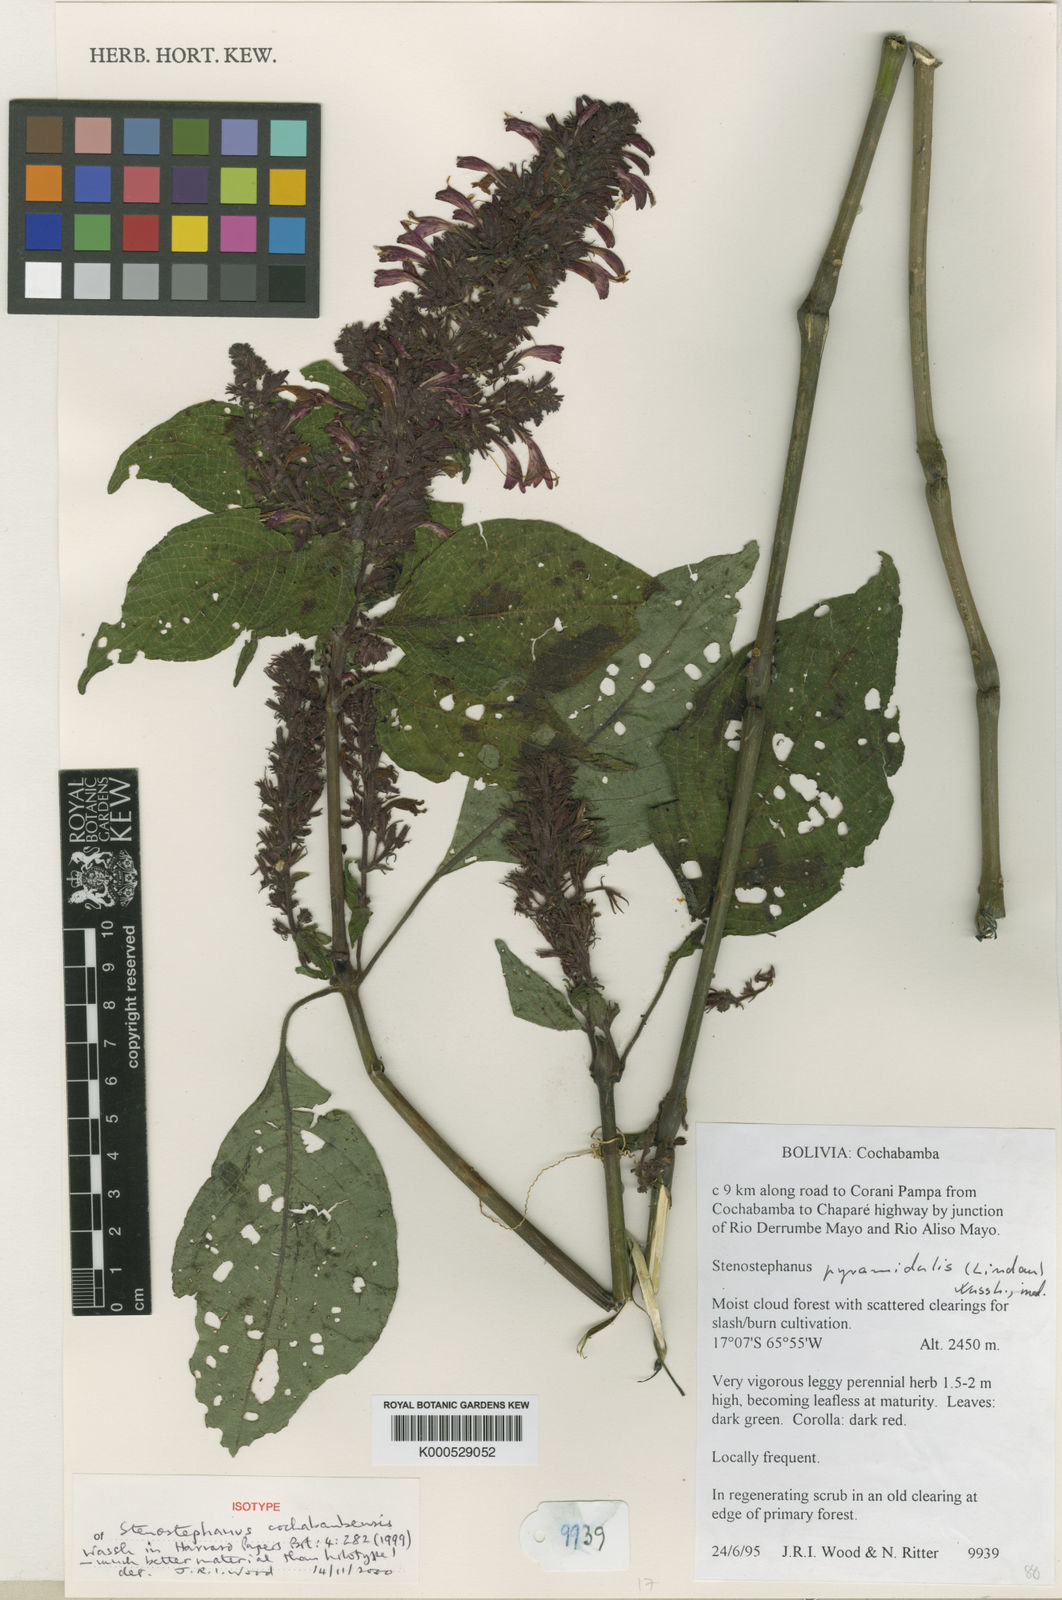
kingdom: Plantae
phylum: Tracheophyta
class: Magnoliopsida
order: Lamiales
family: Acanthaceae
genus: Stenostephanus
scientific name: Stenostephanus cochabambensis
